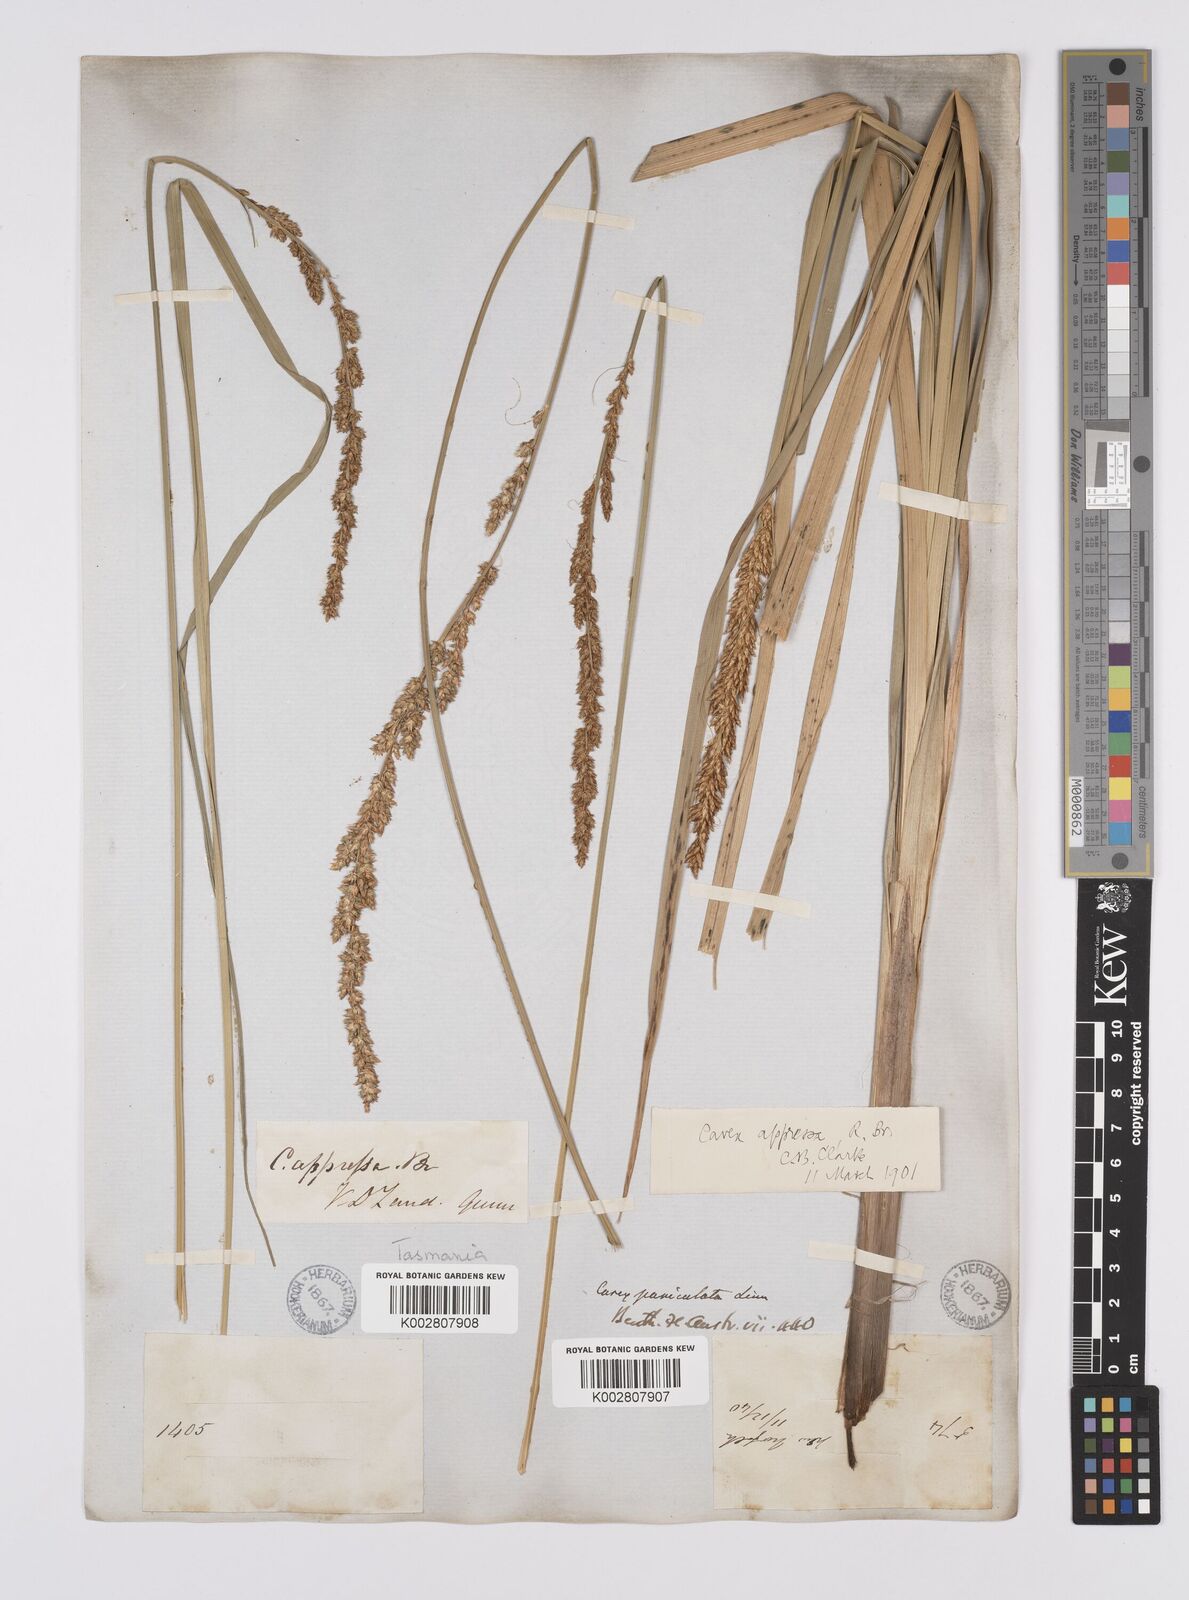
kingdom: Plantae
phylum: Tracheophyta
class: Liliopsida
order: Poales
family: Cyperaceae
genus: Carex
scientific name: Carex appressa
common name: Tussock sedge
